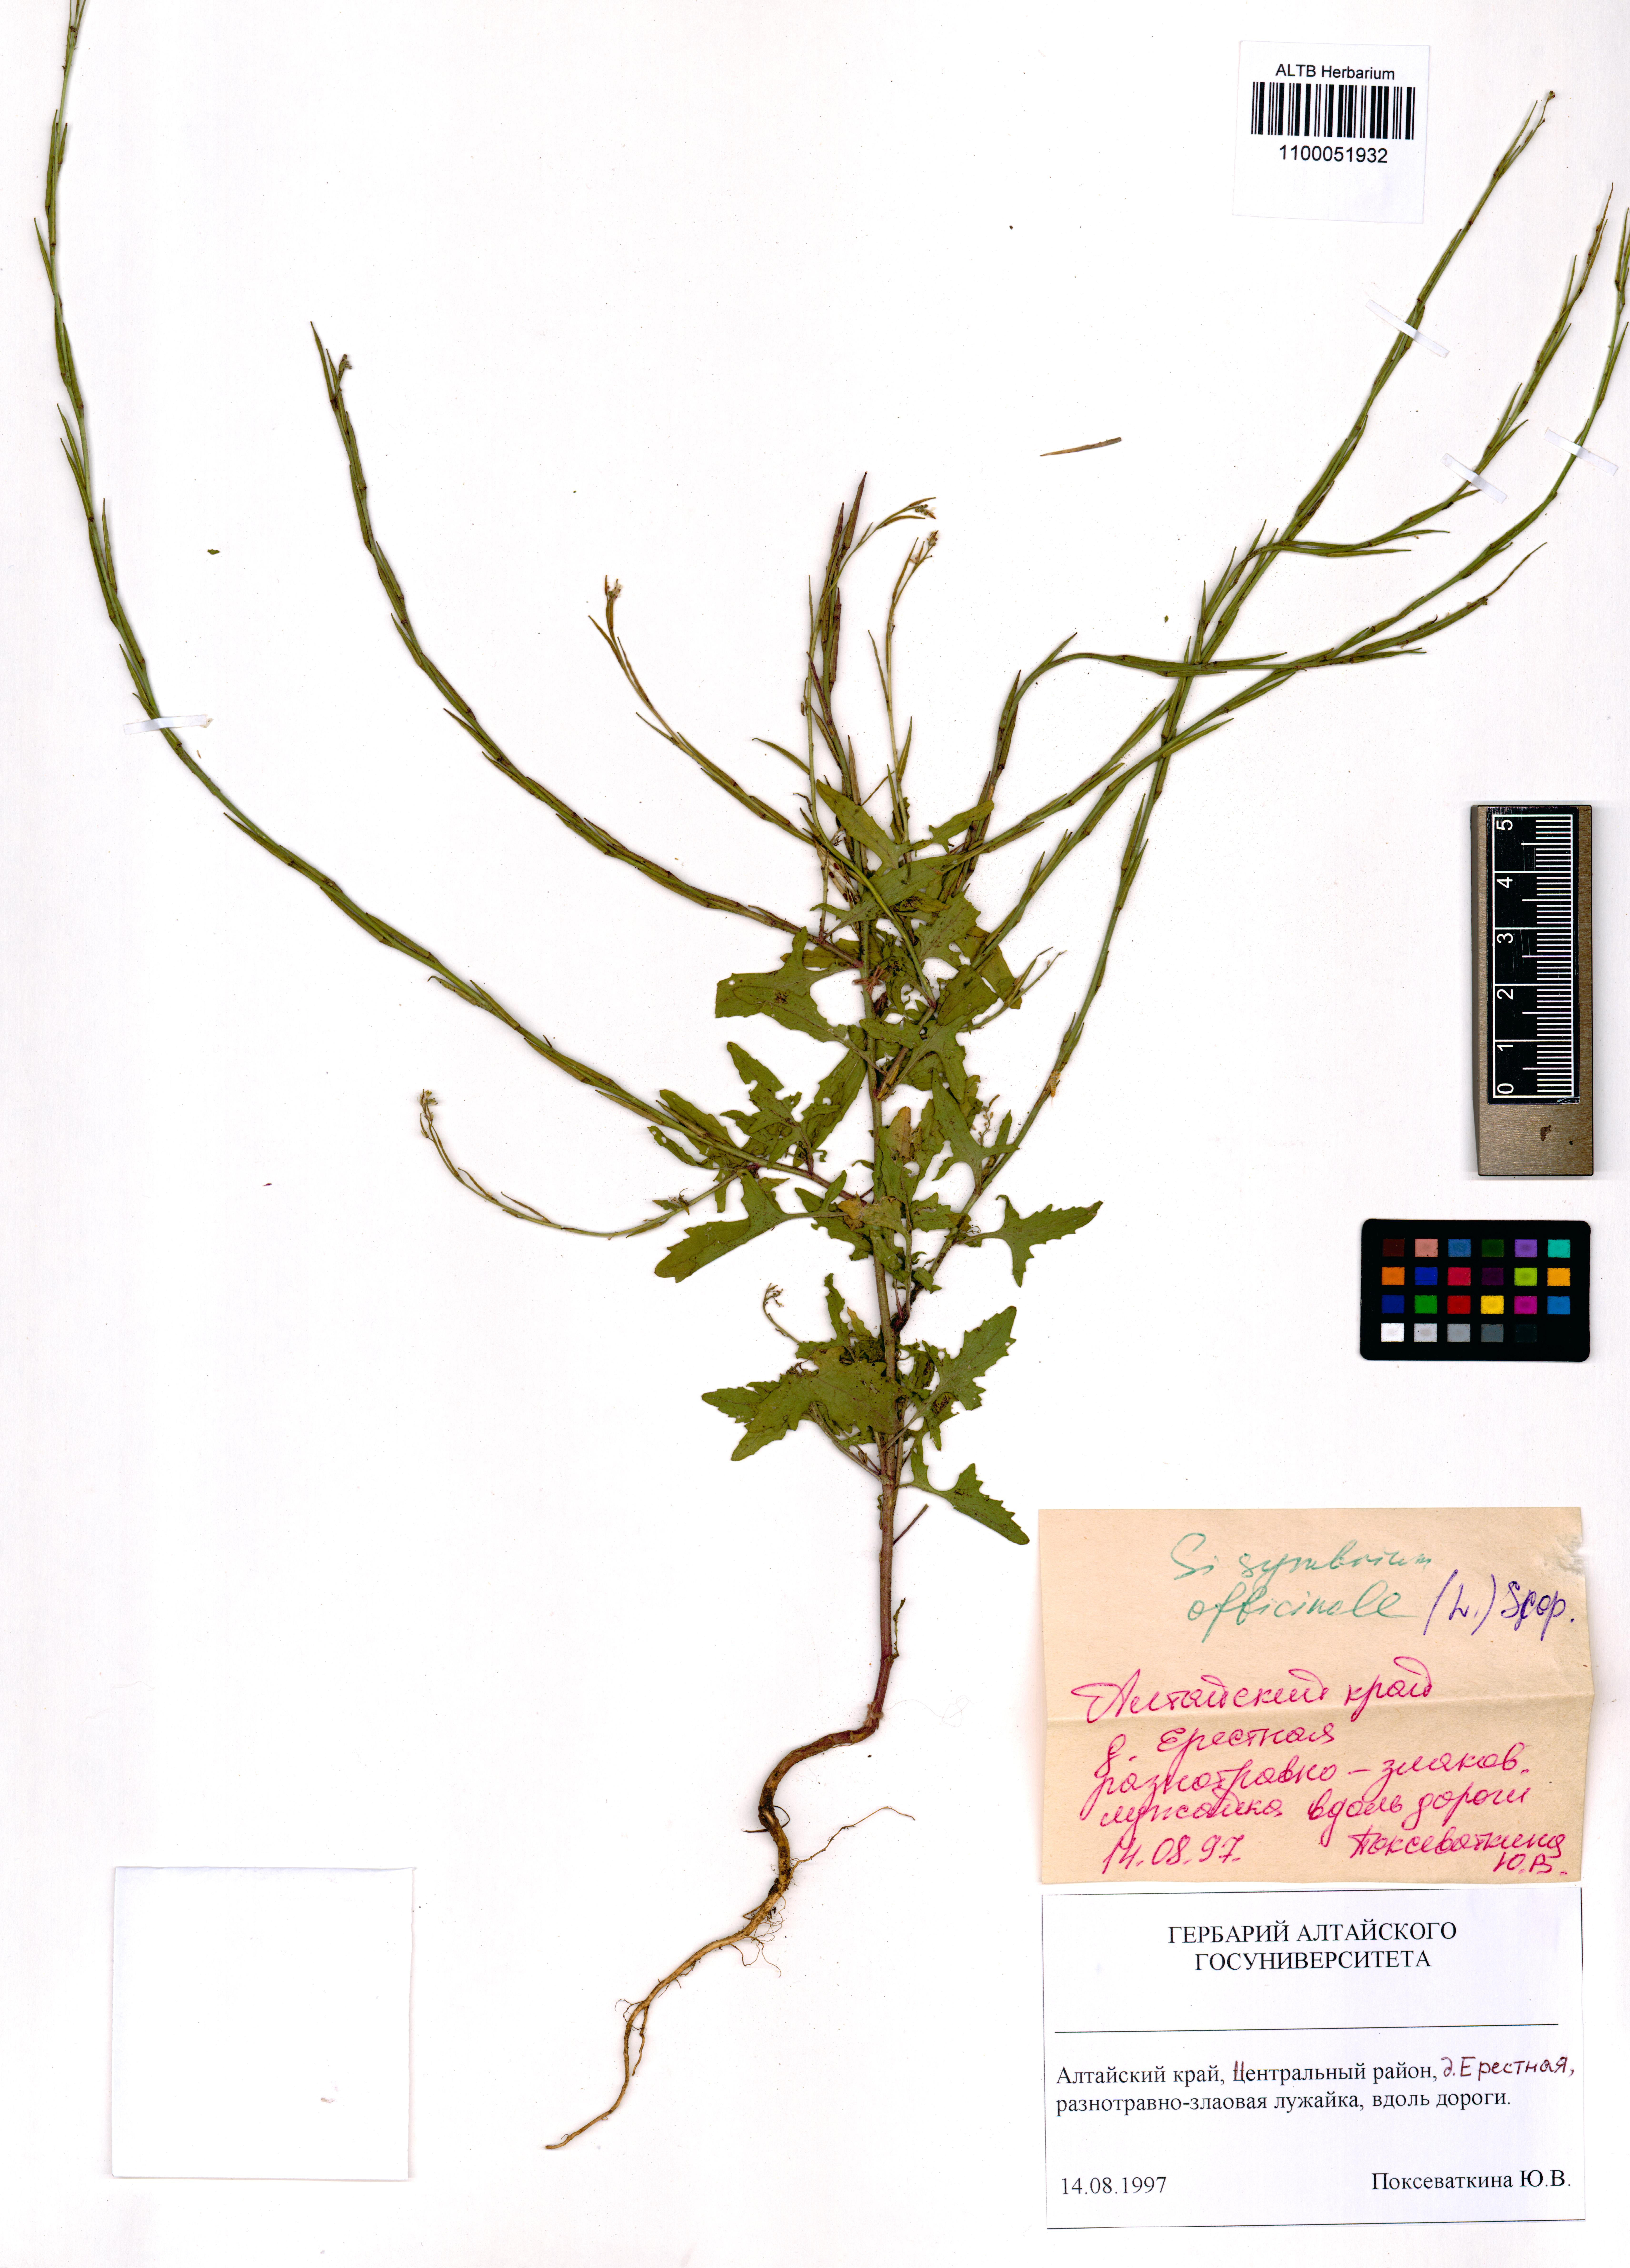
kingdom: Plantae
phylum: Tracheophyta
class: Magnoliopsida
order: Brassicales
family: Brassicaceae
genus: Sisymbrium
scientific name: Sisymbrium officinale
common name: Hedge mustard
